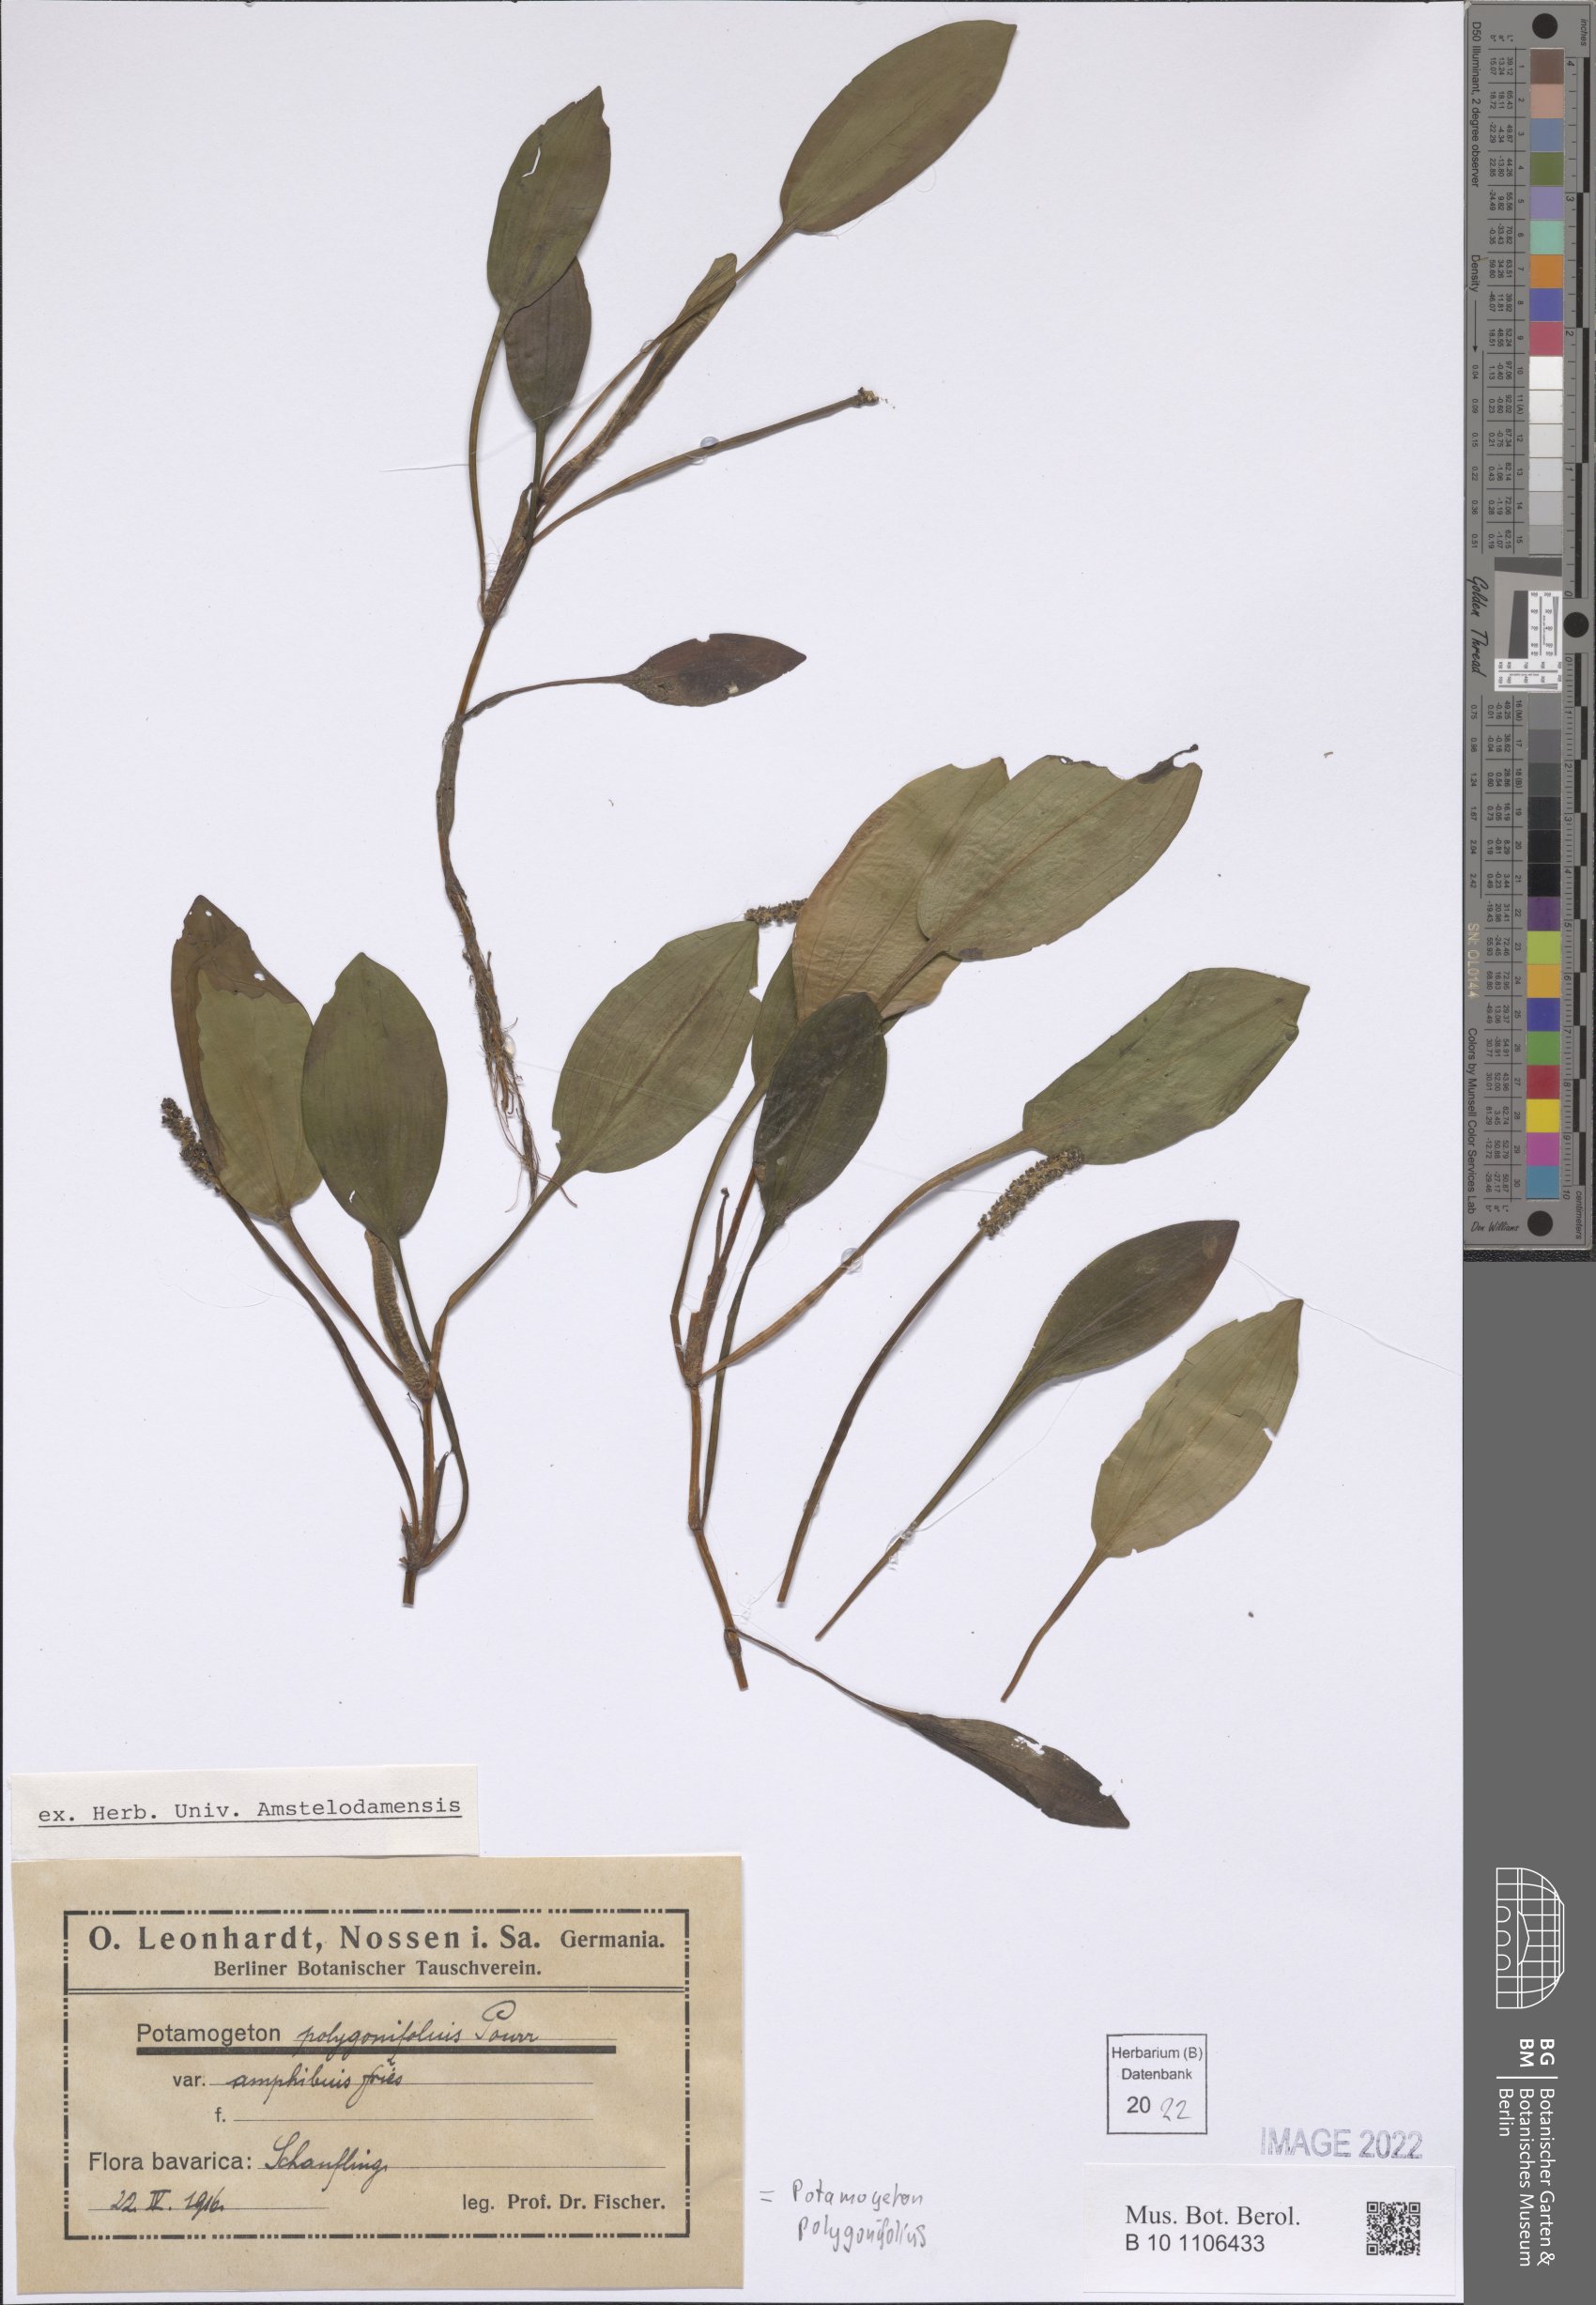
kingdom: Plantae
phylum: Tracheophyta
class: Liliopsida
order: Alismatales
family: Potamogetonaceae
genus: Potamogeton
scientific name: Potamogeton polygonifolius
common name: Bog pondweed
